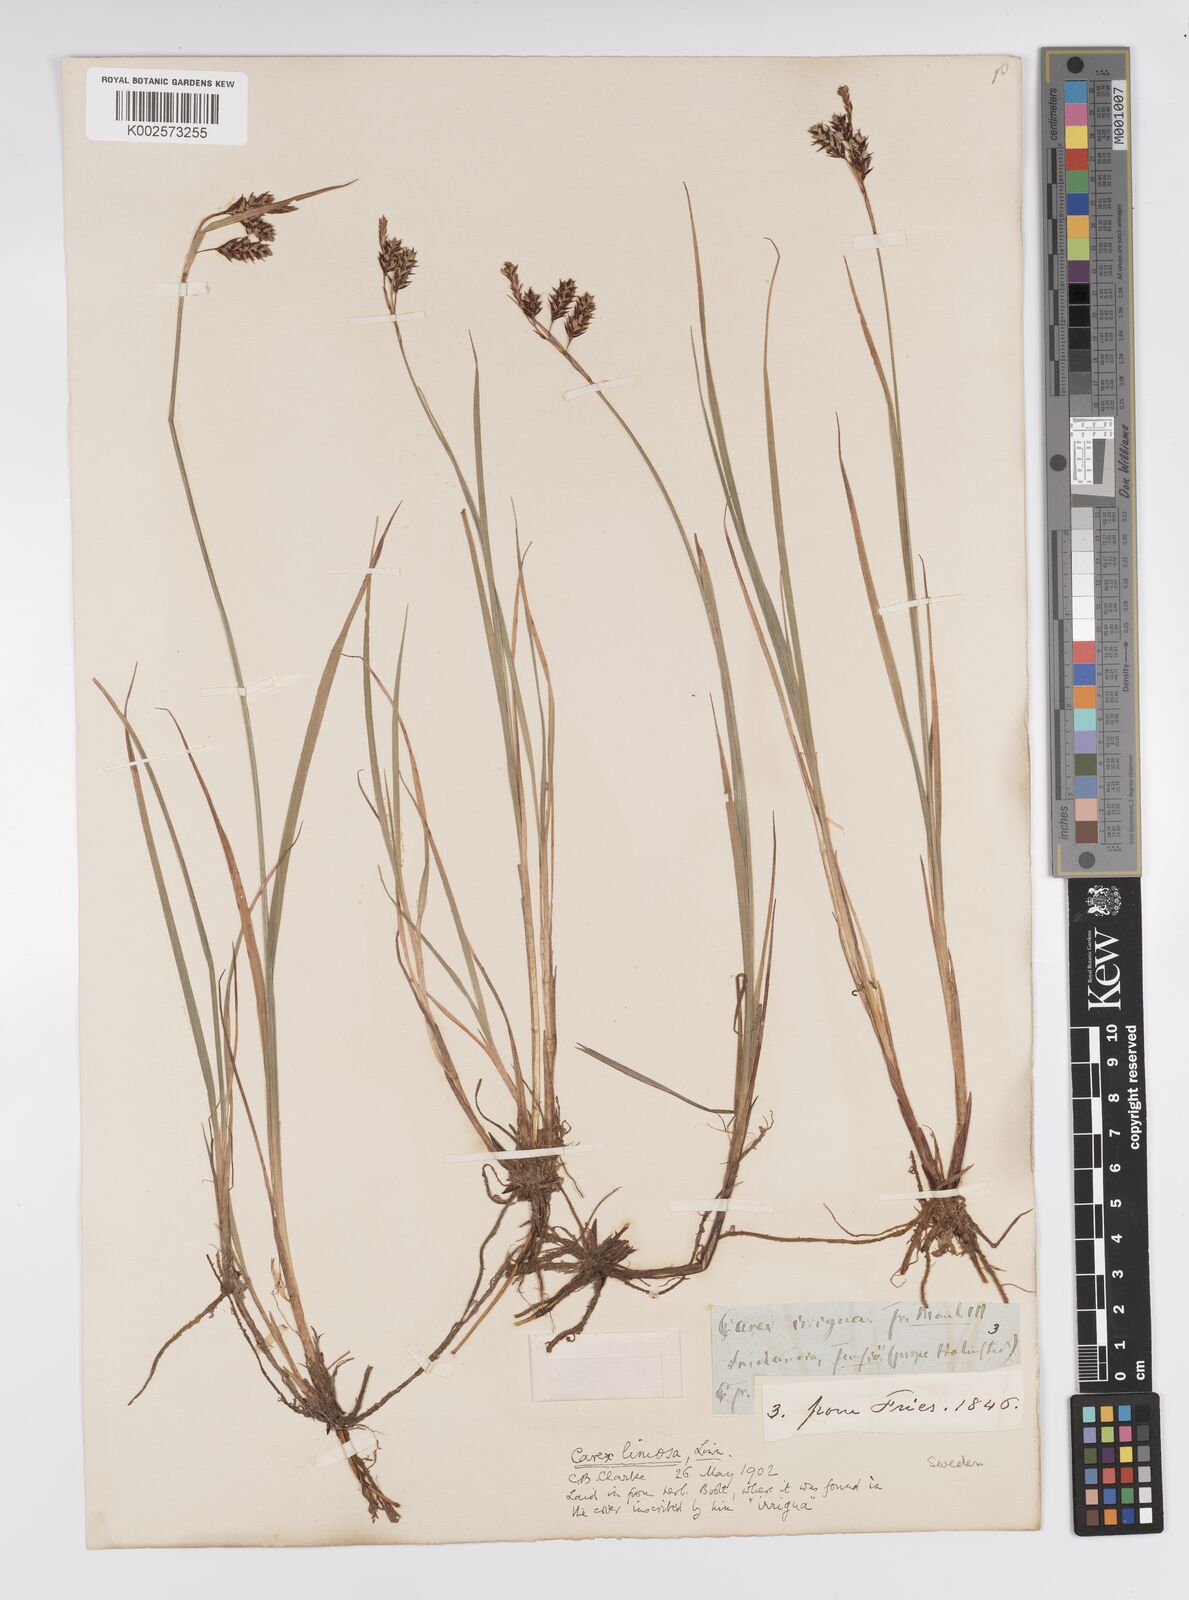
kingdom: Plantae
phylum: Tracheophyta
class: Liliopsida
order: Poales
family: Cyperaceae
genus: Carex
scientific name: Carex magellanica
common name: Bog sedge
